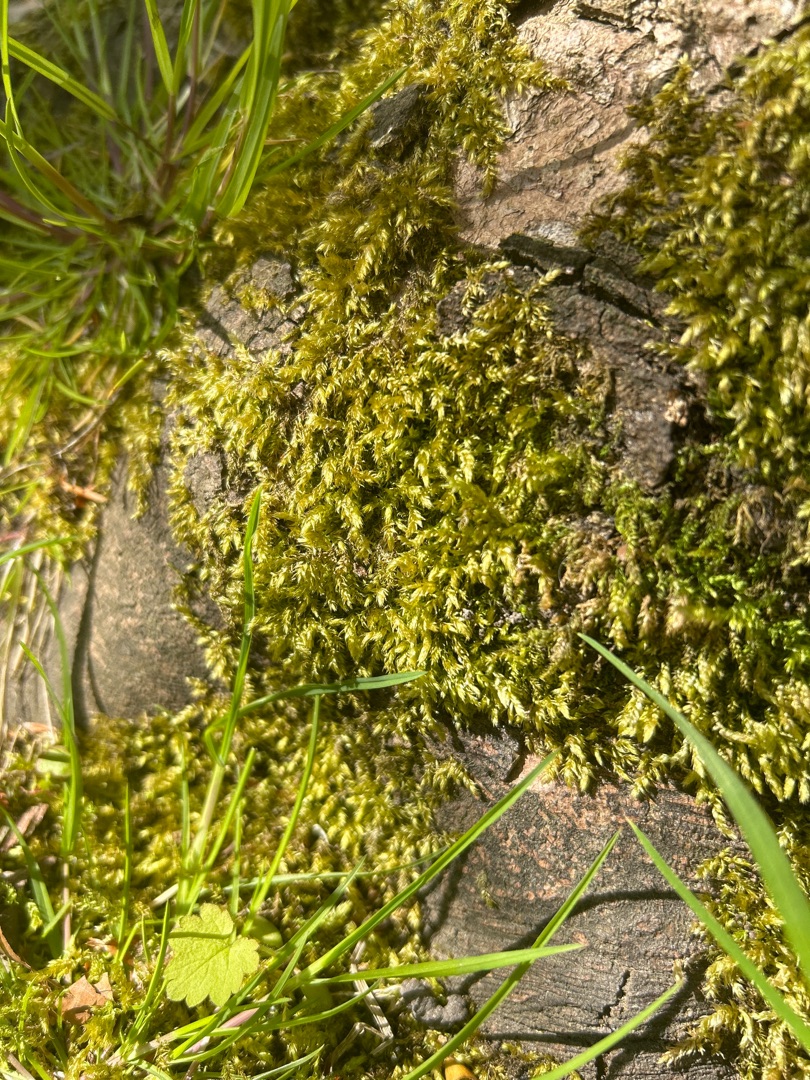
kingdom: Plantae
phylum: Bryophyta
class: Bryopsida
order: Hypnales
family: Brachytheciaceae
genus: Brachythecium
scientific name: Brachythecium rutabulum
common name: Almindelig kortkapsel
